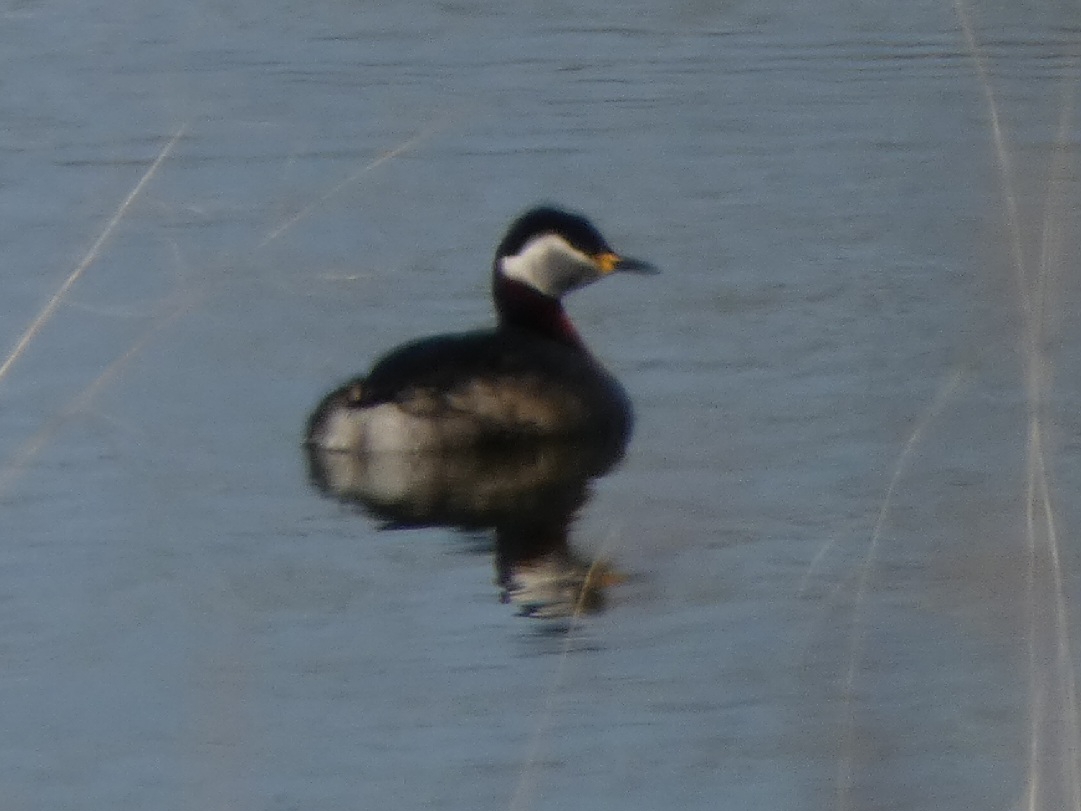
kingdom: Animalia
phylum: Chordata
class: Aves
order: Podicipediformes
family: Podicipedidae
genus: Podiceps
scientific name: Podiceps grisegena
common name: Gråstrubet lappedykker
